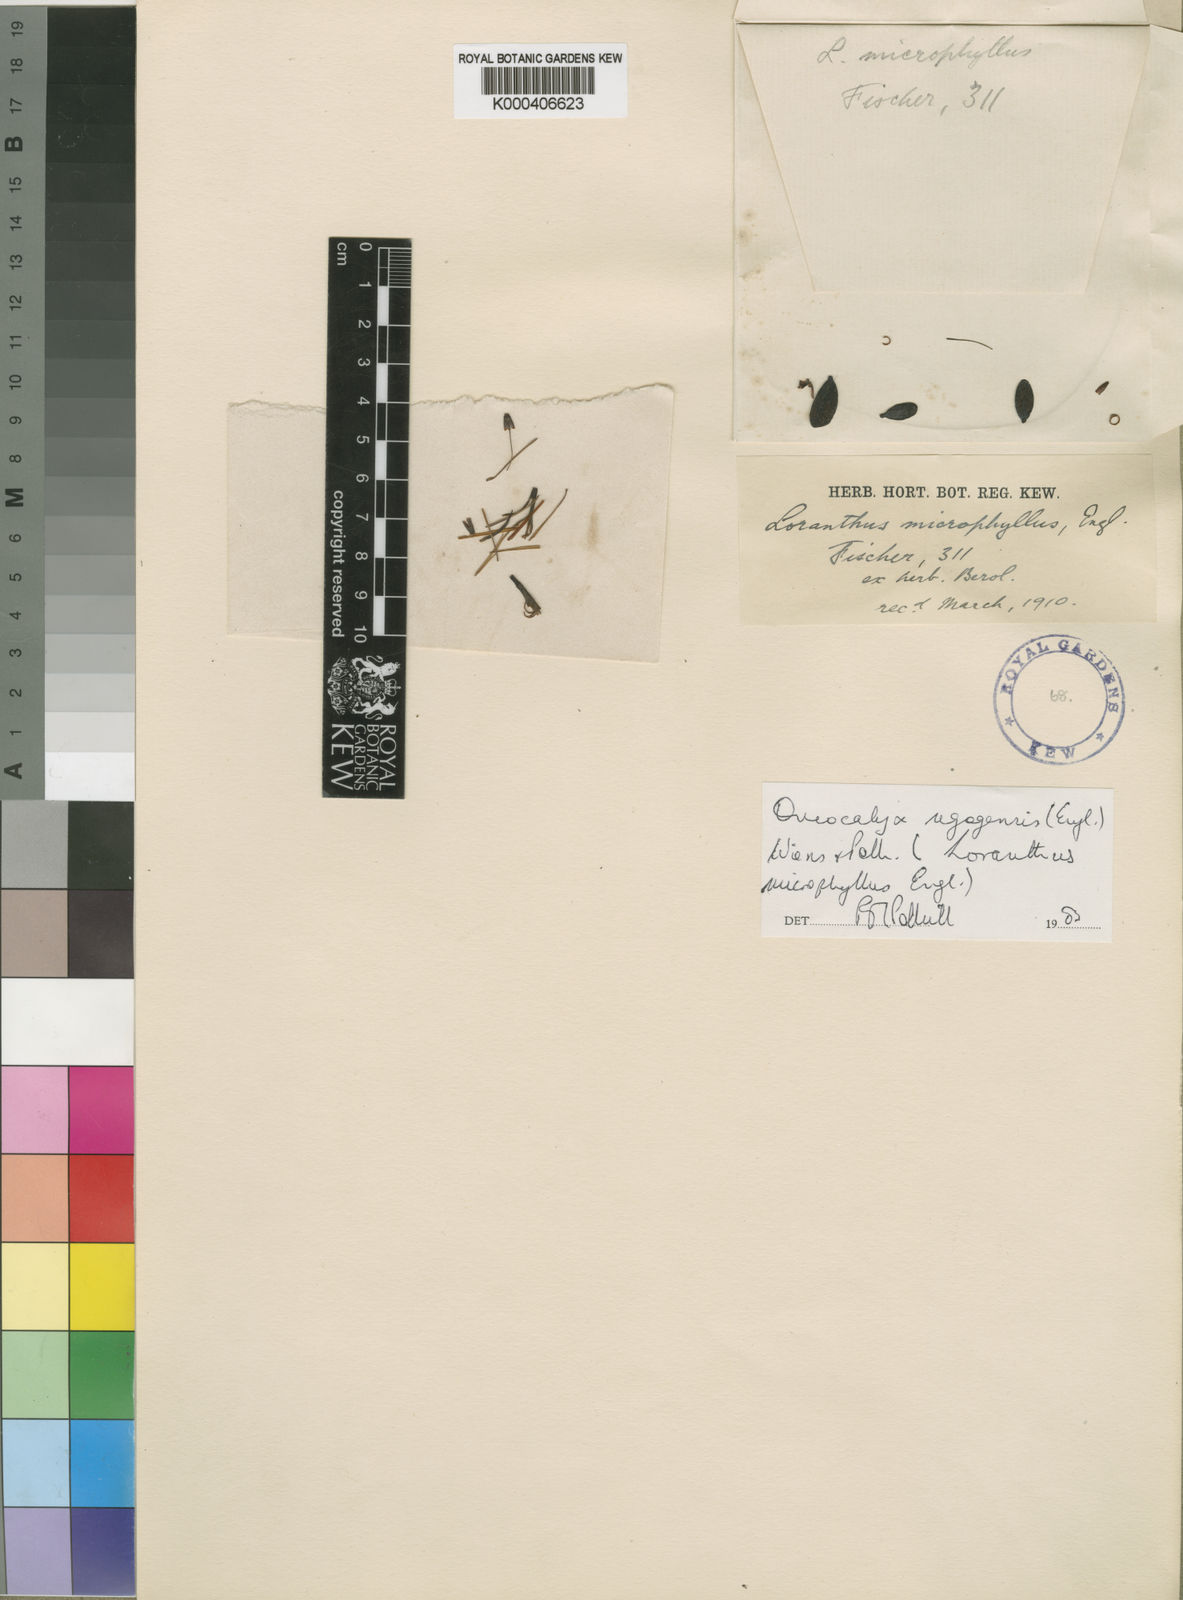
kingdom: Plantae
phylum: Tracheophyta
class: Magnoliopsida
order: Santalales
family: Loranthaceae
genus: Oncocalyx
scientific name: Oncocalyx ugogensis
